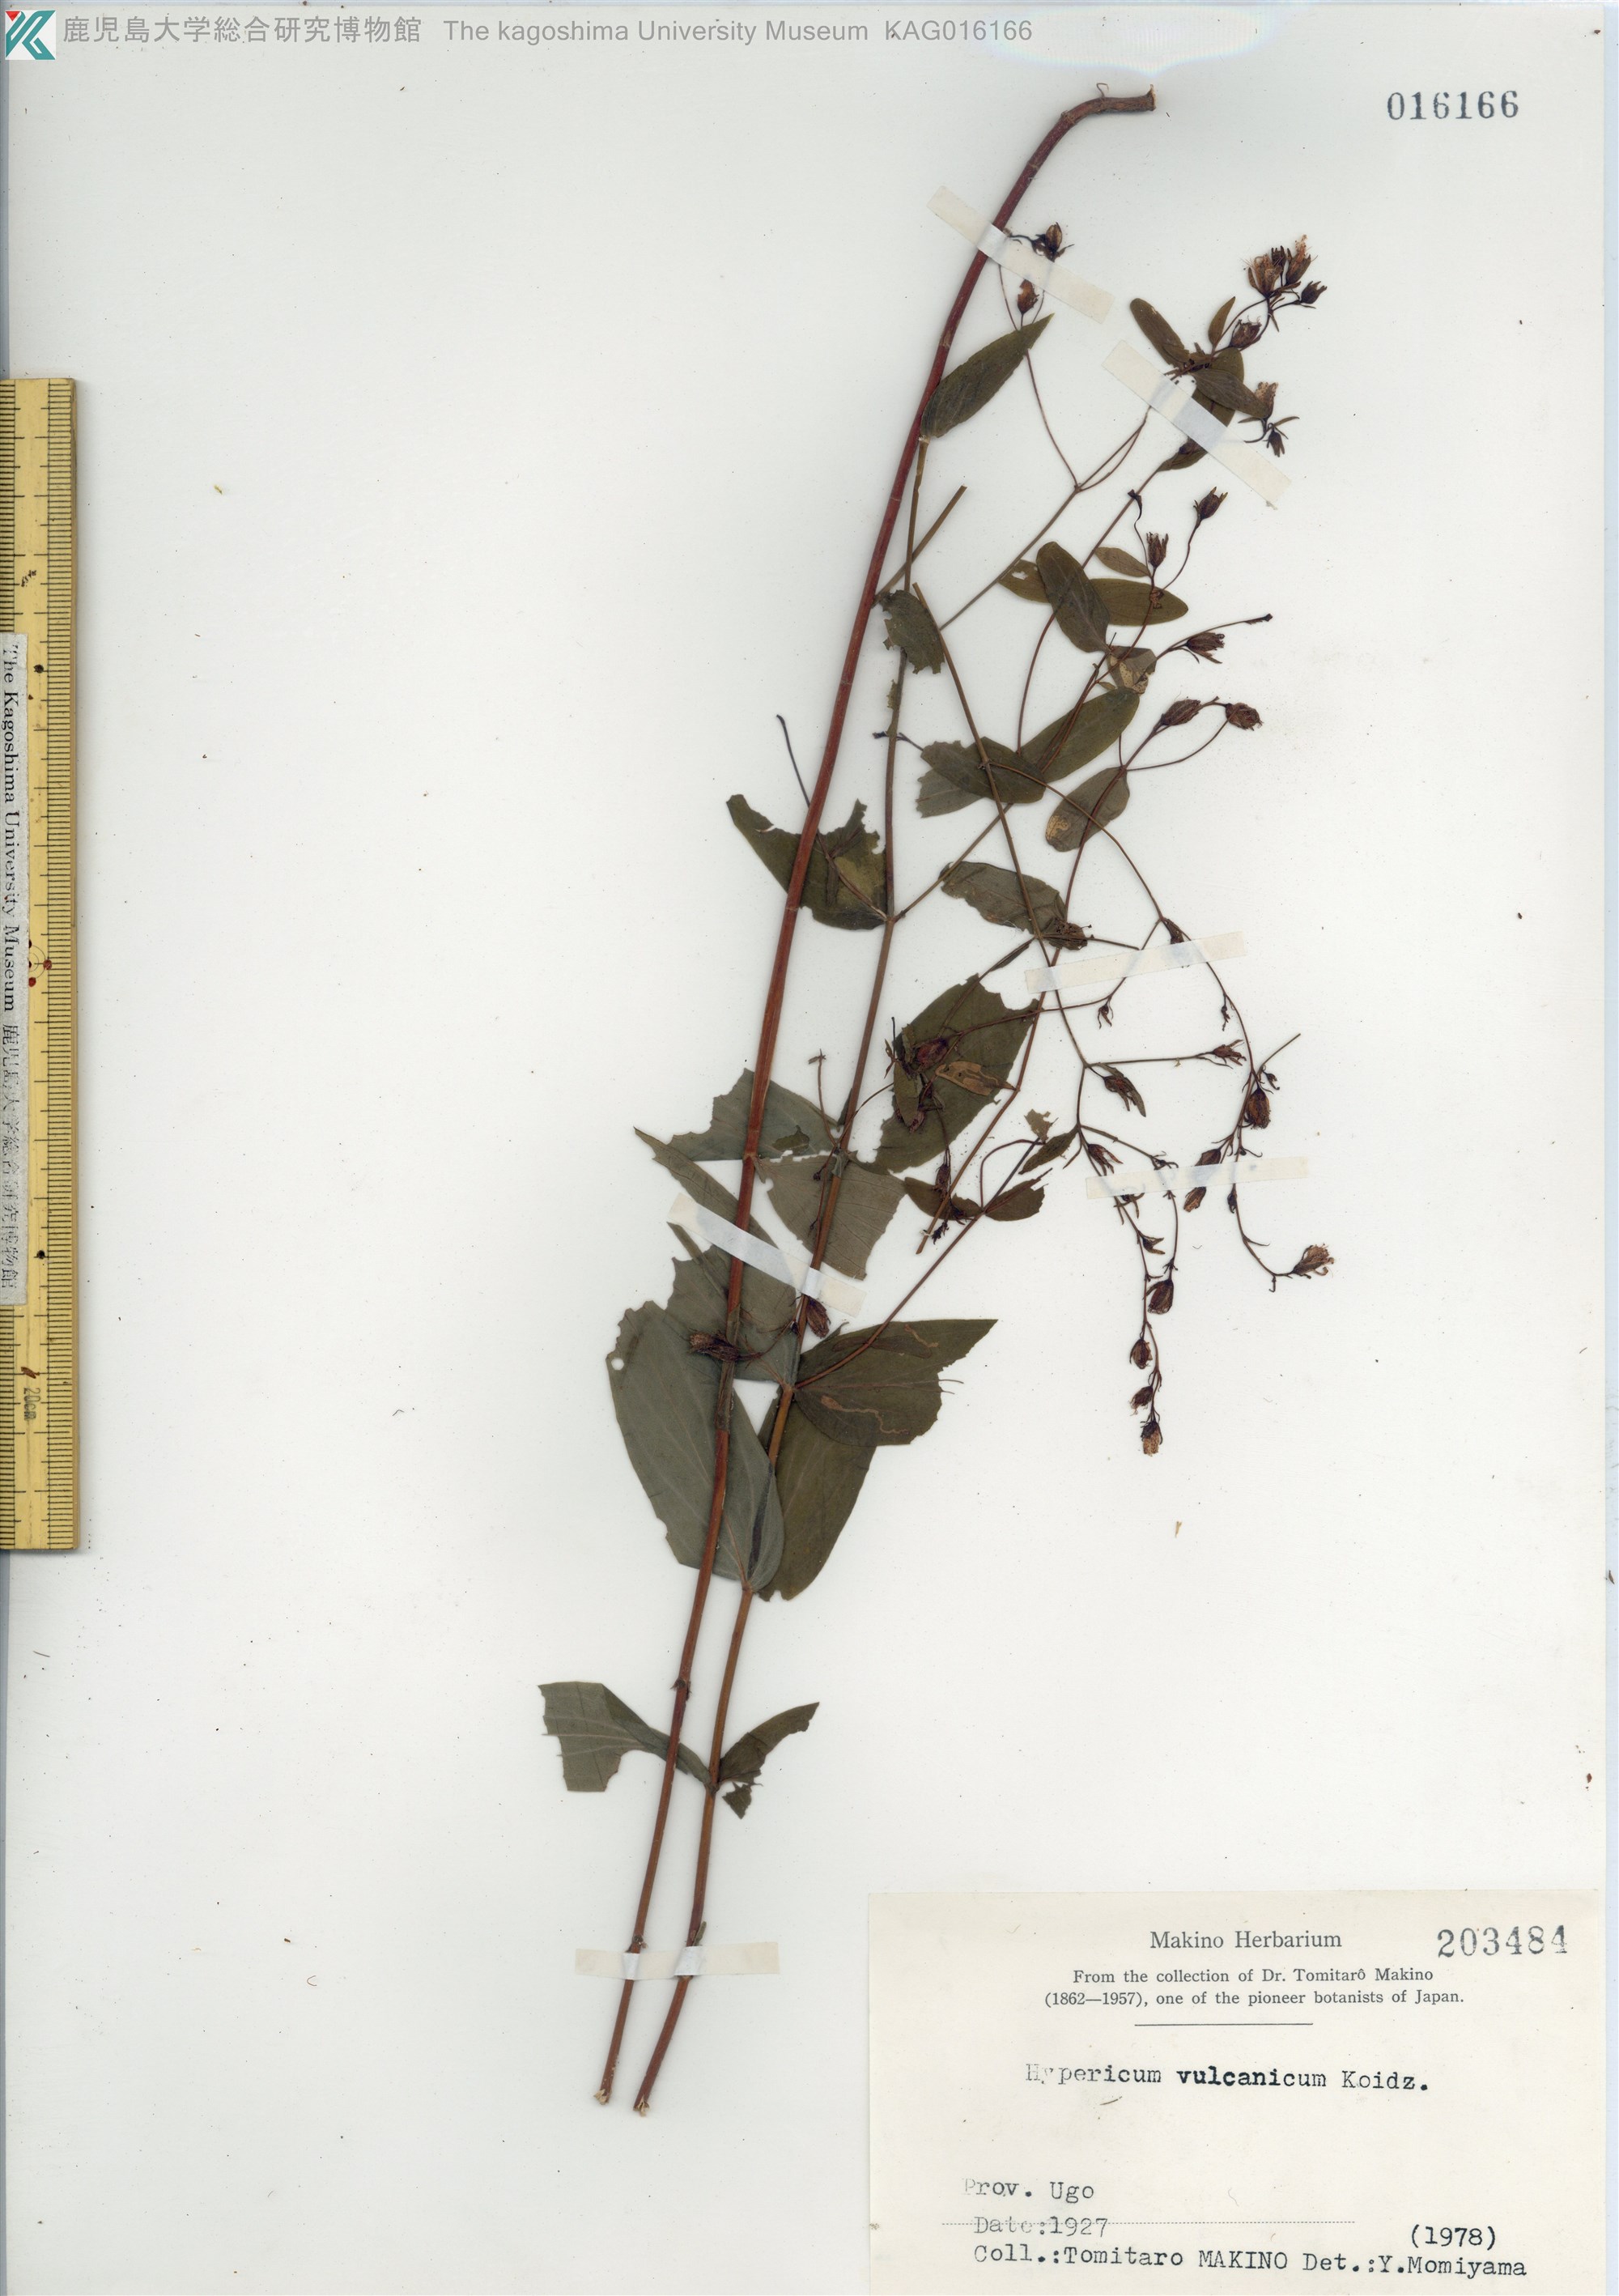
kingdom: Plantae
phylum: Tracheophyta
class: Magnoliopsida
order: Malpighiales
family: Hypericaceae
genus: Hypericum
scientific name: Hypericum vulcanicum
